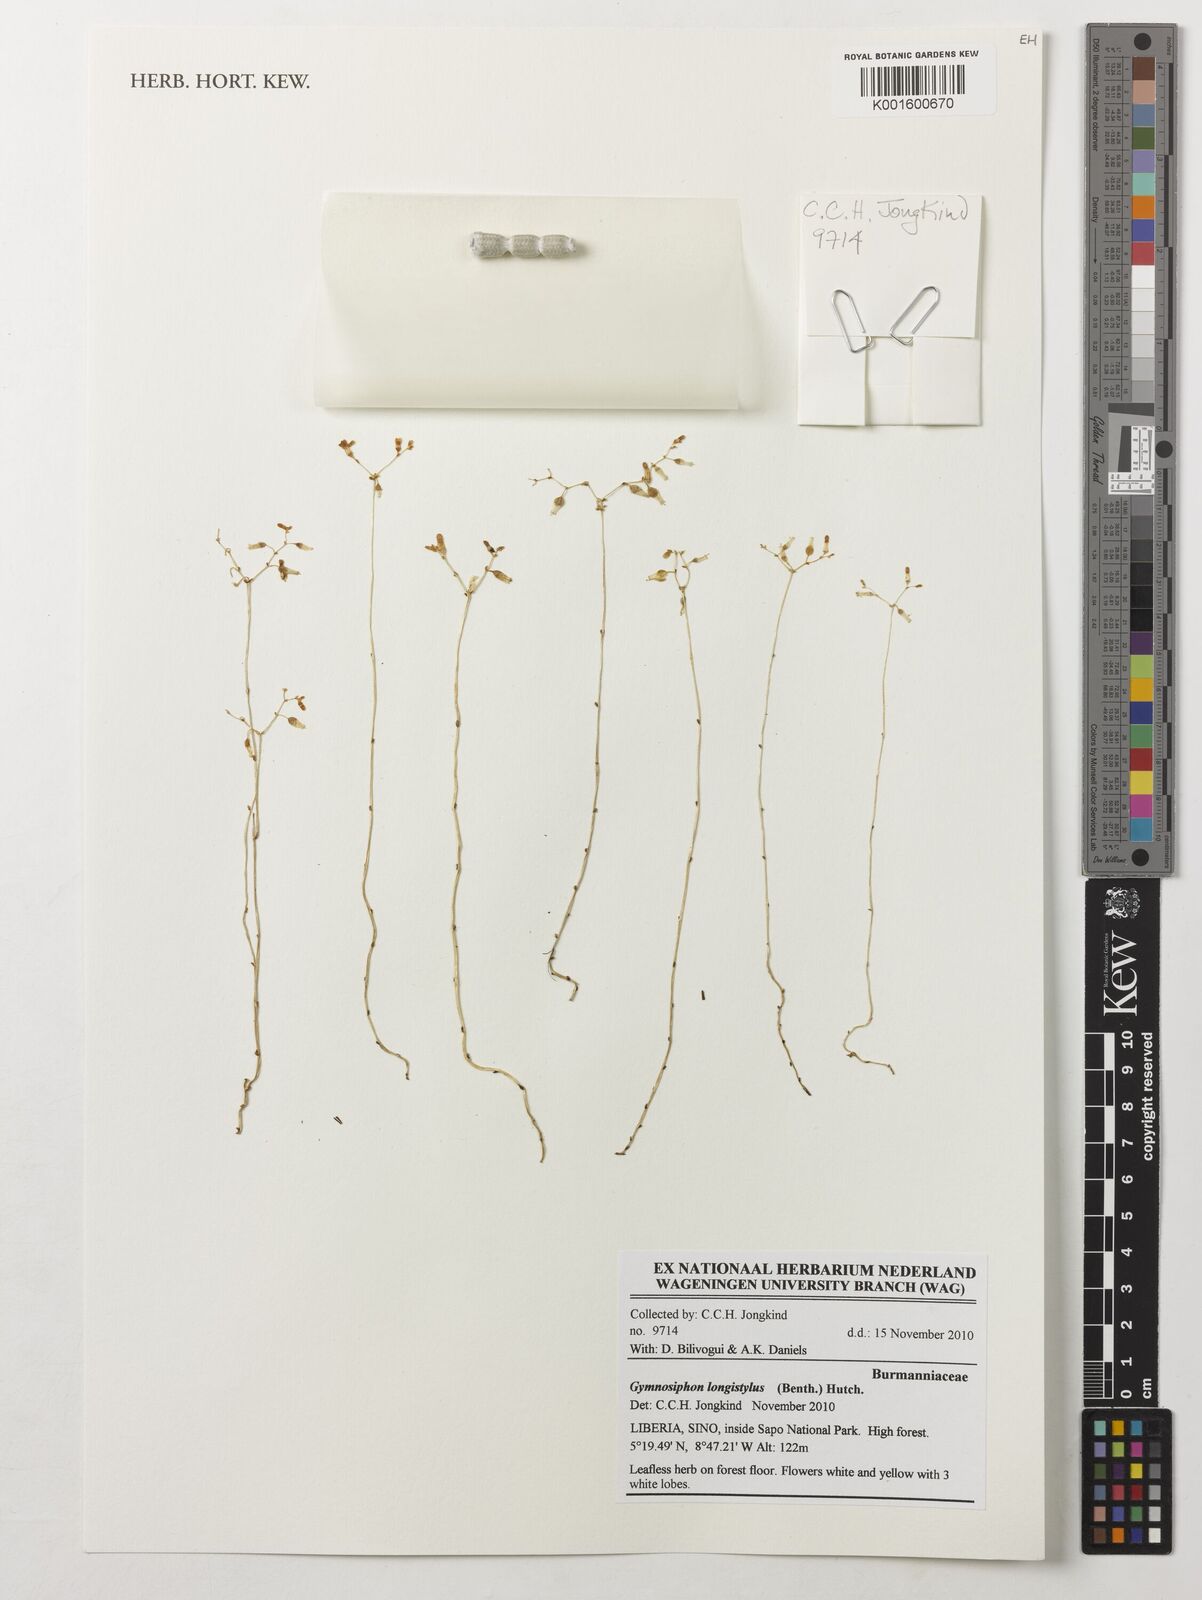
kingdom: Plantae
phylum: Tracheophyta
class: Liliopsida
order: Dioscoreales
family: Burmanniaceae
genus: Gymnosiphon
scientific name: Gymnosiphon longistylus
